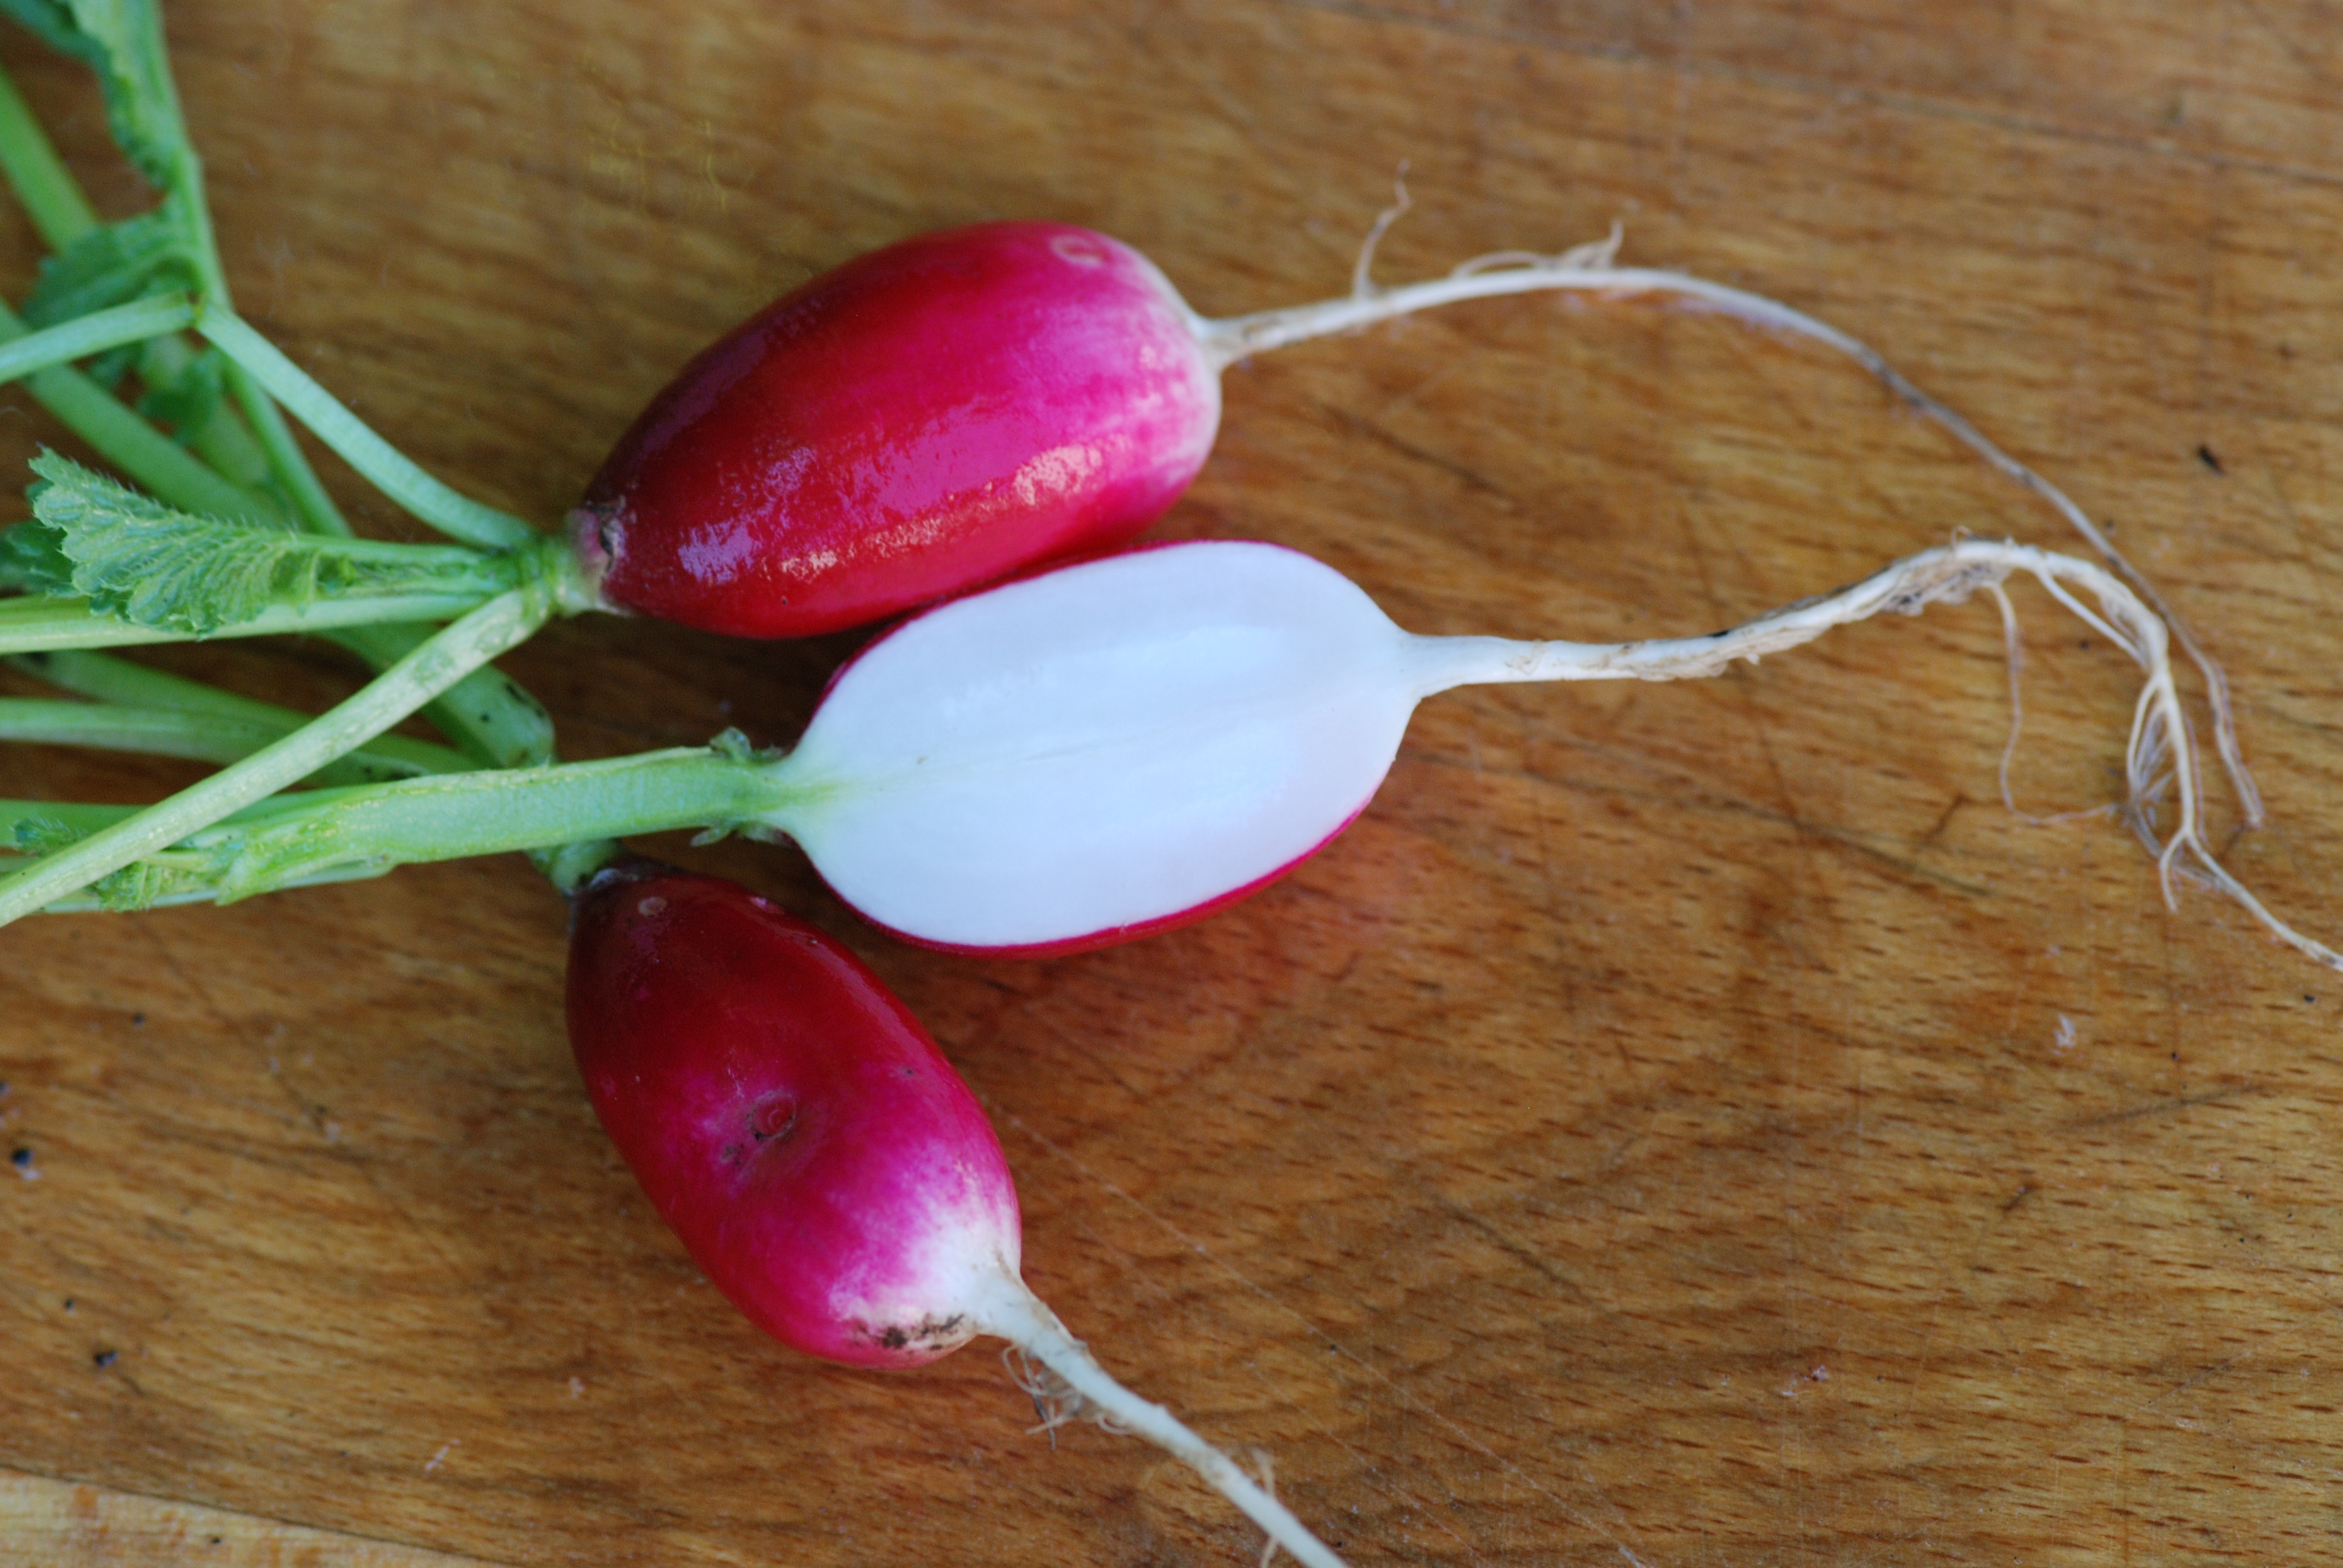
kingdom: Plantae
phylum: Tracheophyta
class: Magnoliopsida
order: Brassicales
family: Brassicaceae
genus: Raphanus
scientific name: Raphanus sativus
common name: Cultivated radish
